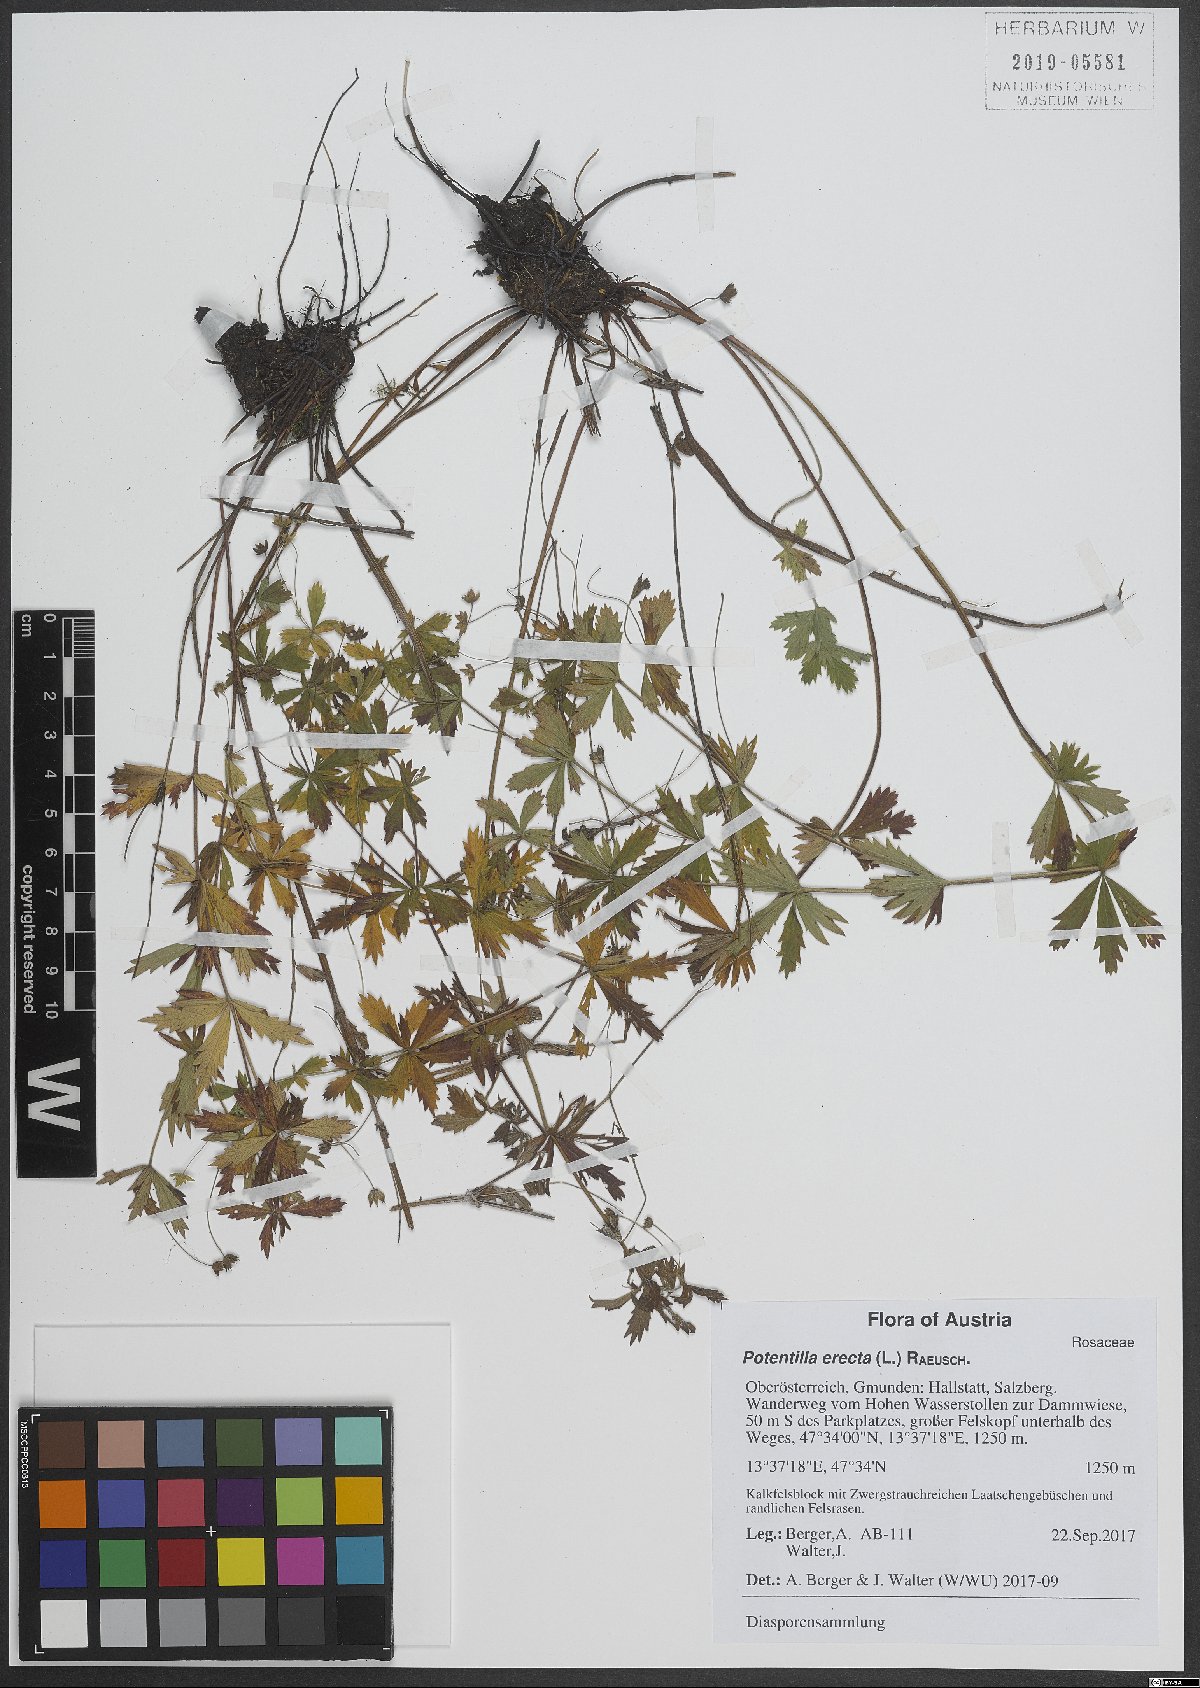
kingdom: Plantae
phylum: Tracheophyta
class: Magnoliopsida
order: Rosales
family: Rosaceae
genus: Potentilla
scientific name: Potentilla erecta
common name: Tormentil
